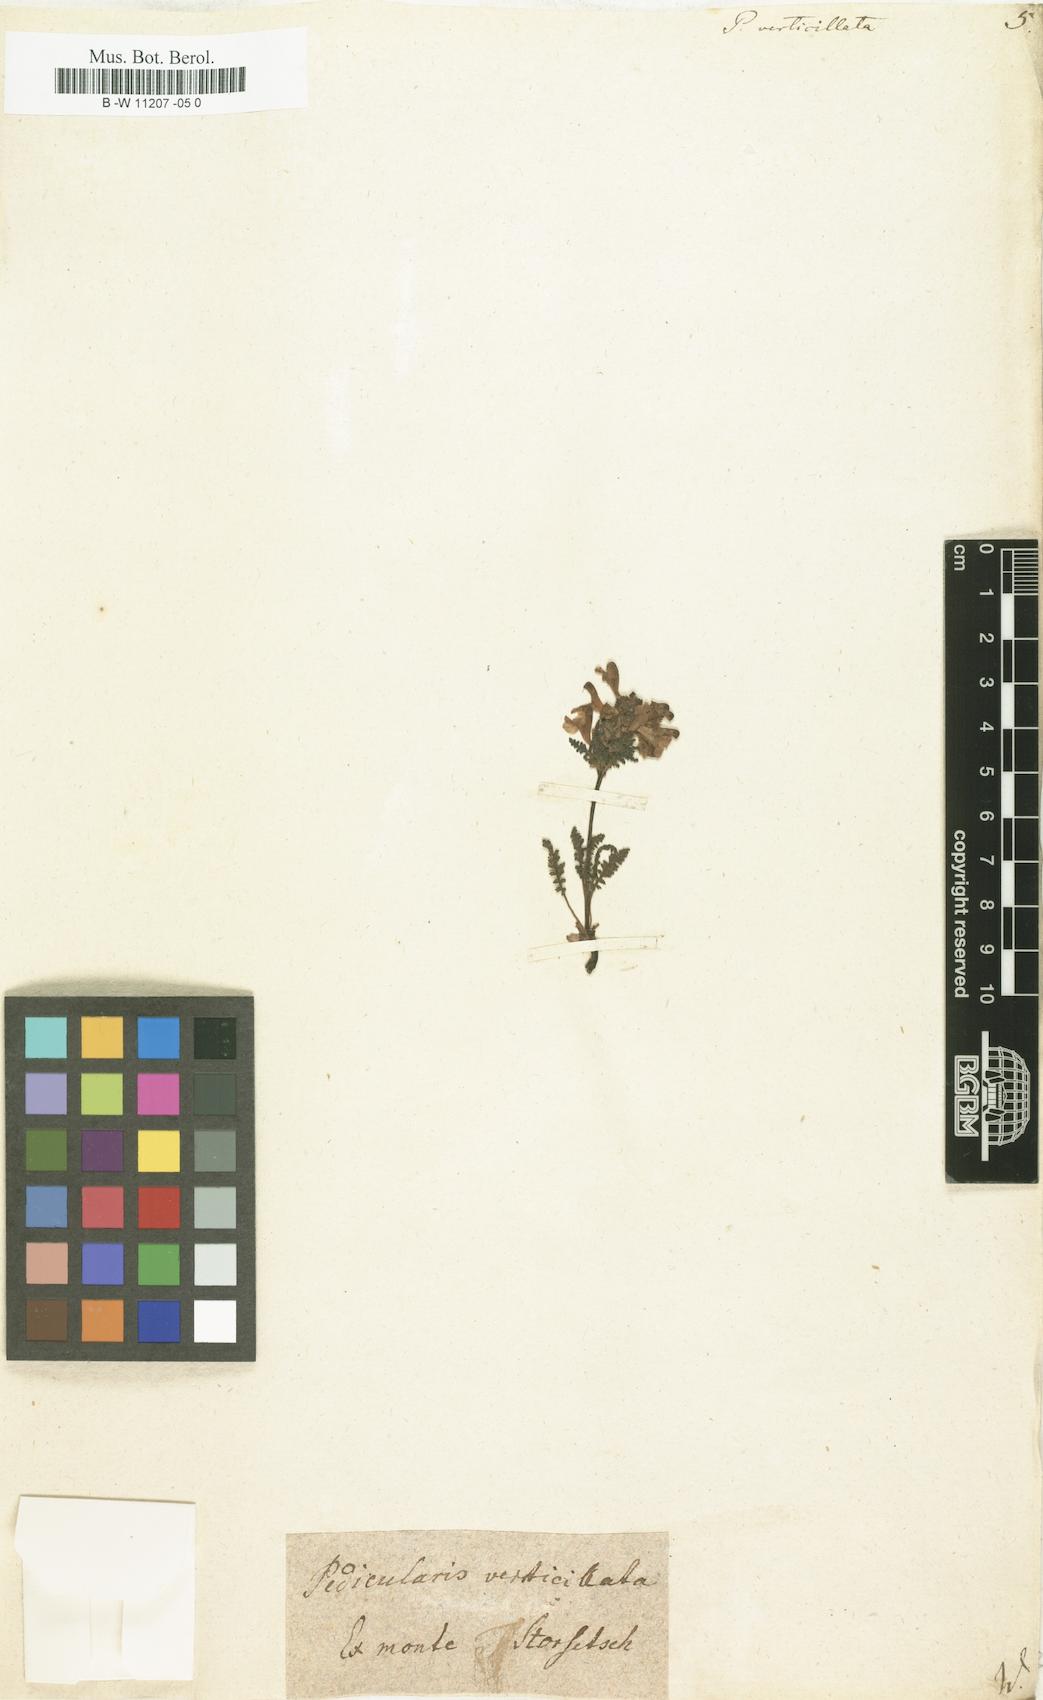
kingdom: Plantae
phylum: Tracheophyta
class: Magnoliopsida
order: Lamiales
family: Orobanchaceae
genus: Pedicularis
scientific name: Pedicularis verticillata
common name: Whorled lousewort
